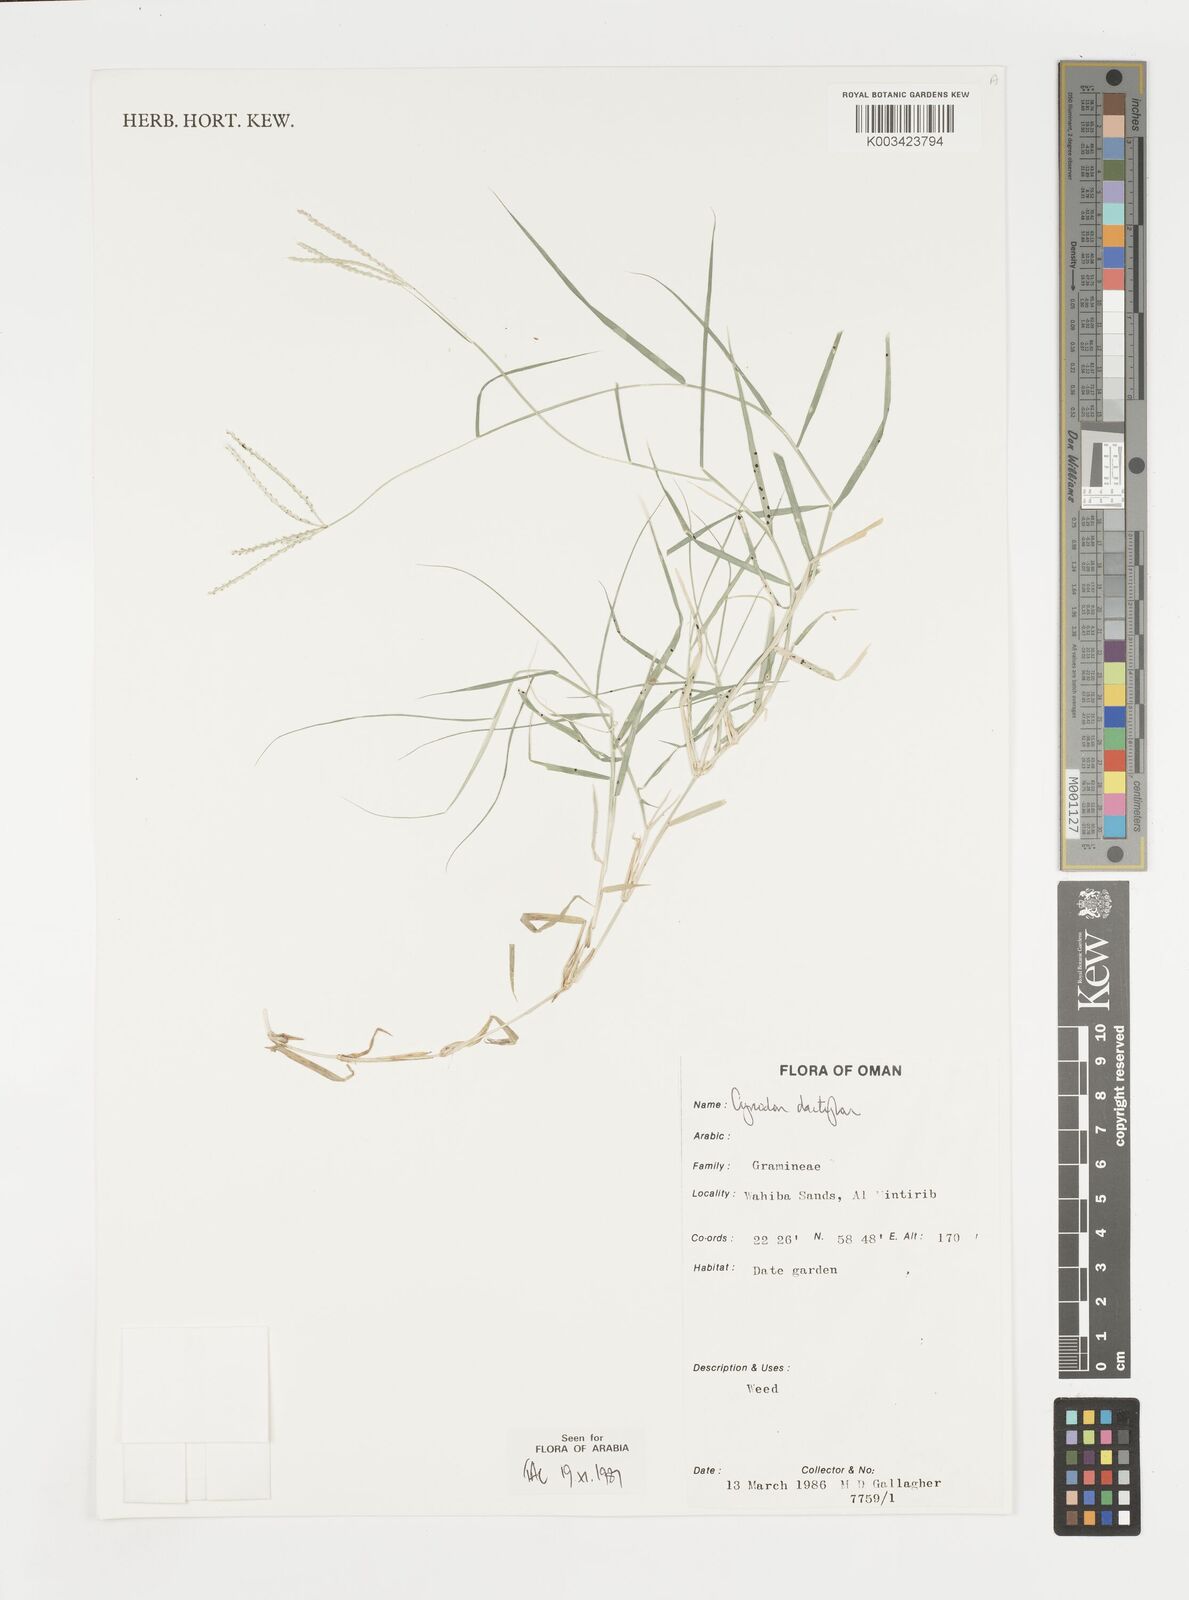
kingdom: Plantae
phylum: Tracheophyta
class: Liliopsida
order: Poales
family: Poaceae
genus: Cynodon
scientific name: Cynodon dactylon
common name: Bermuda grass
